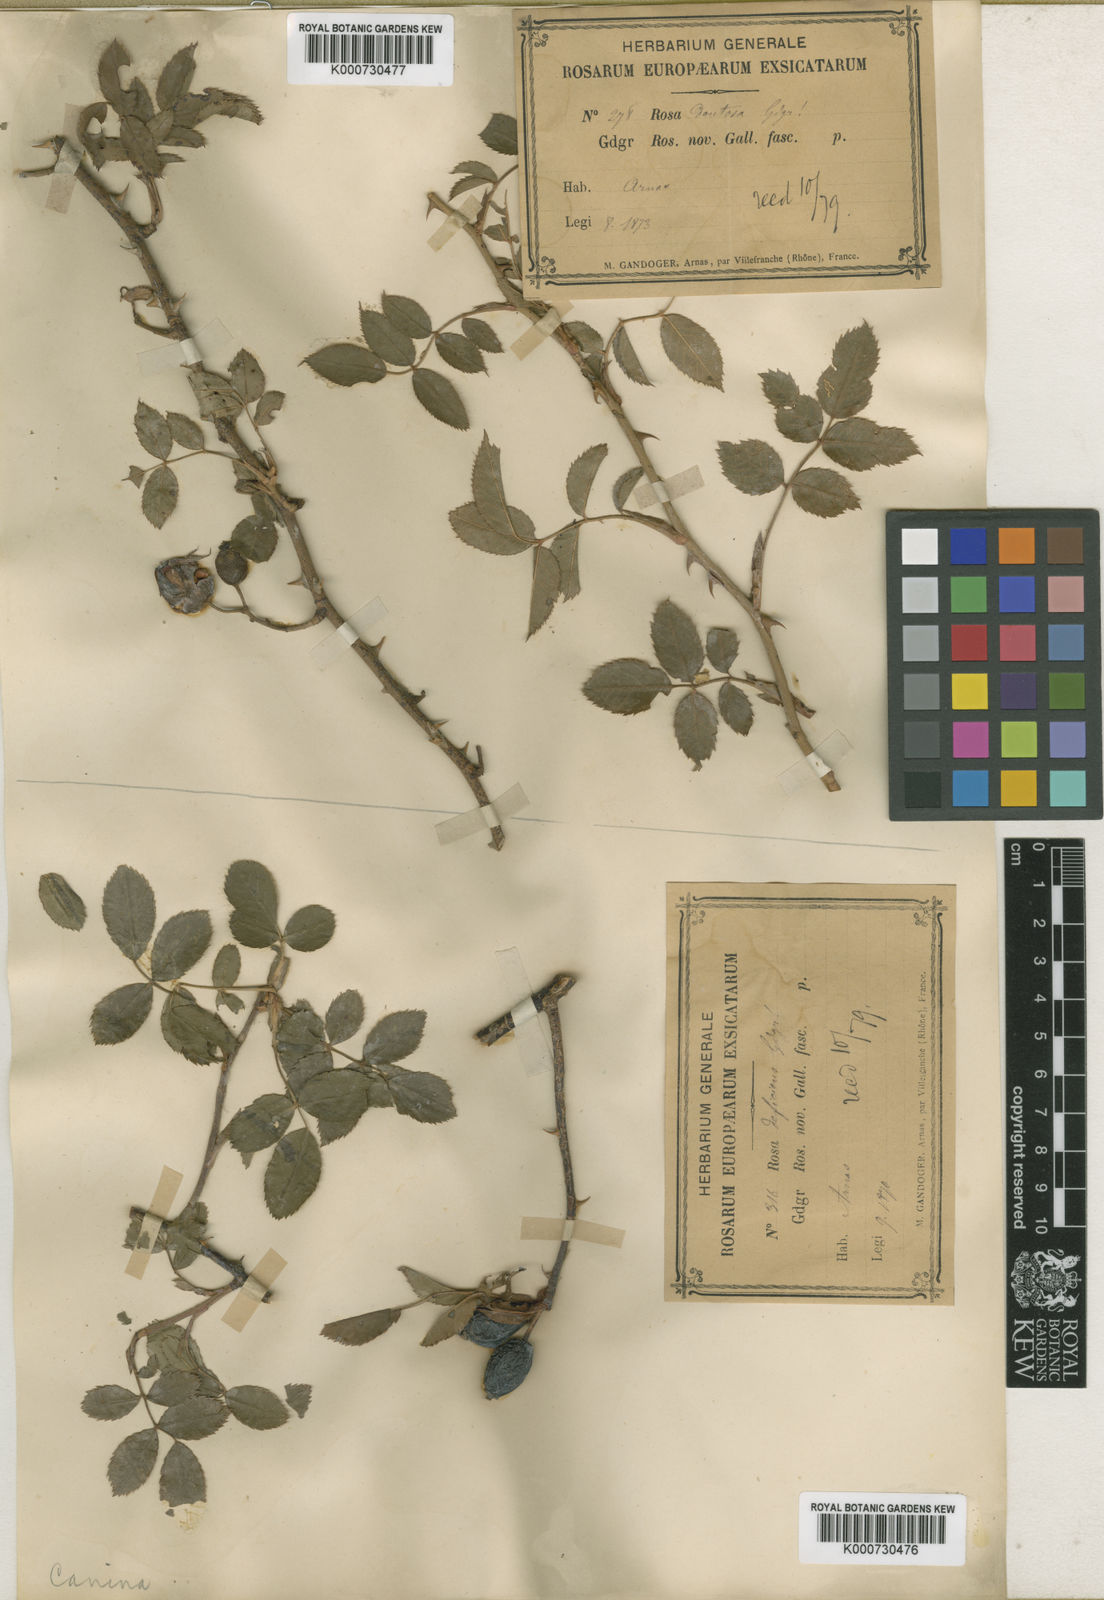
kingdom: Plantae
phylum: Tracheophyta
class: Magnoliopsida
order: Rosales
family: Rosaceae
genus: Rosa
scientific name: Rosa canina
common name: Dog rose
